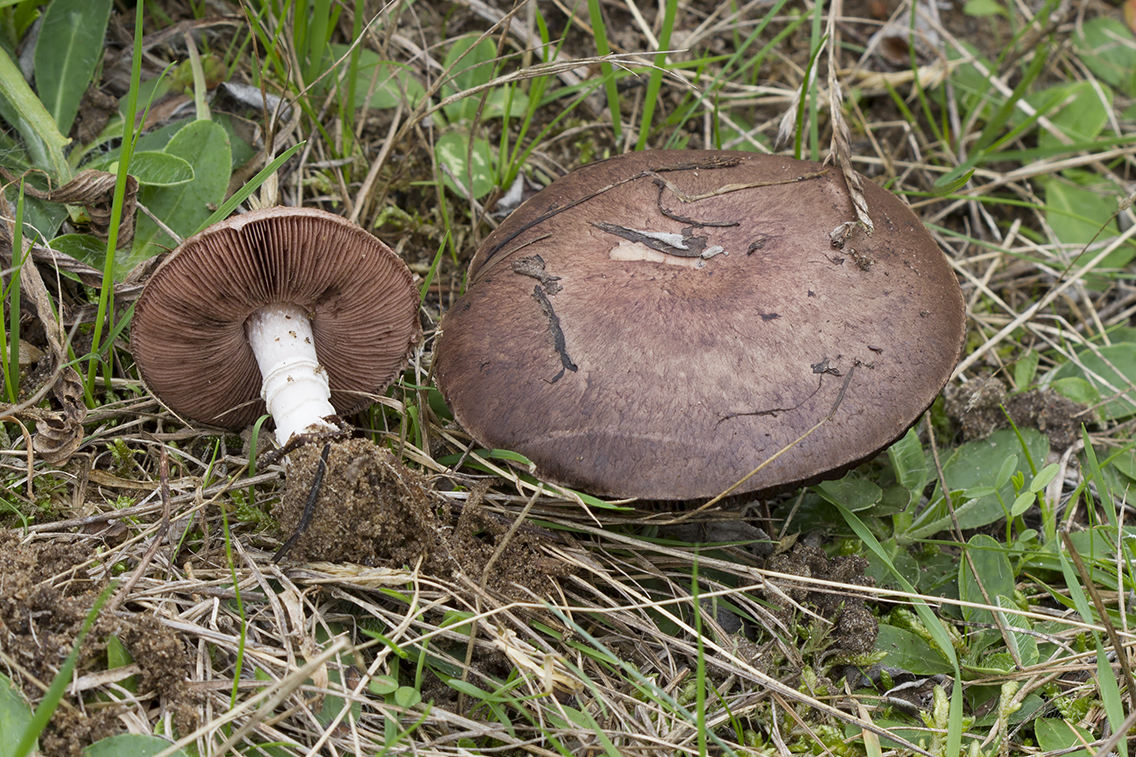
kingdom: Fungi
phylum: Basidiomycota
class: Agaricomycetes
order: Agaricales
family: Agaricaceae
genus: Agaricus
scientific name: Agaricus cupreobrunneus
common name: kobberbrun champignon
